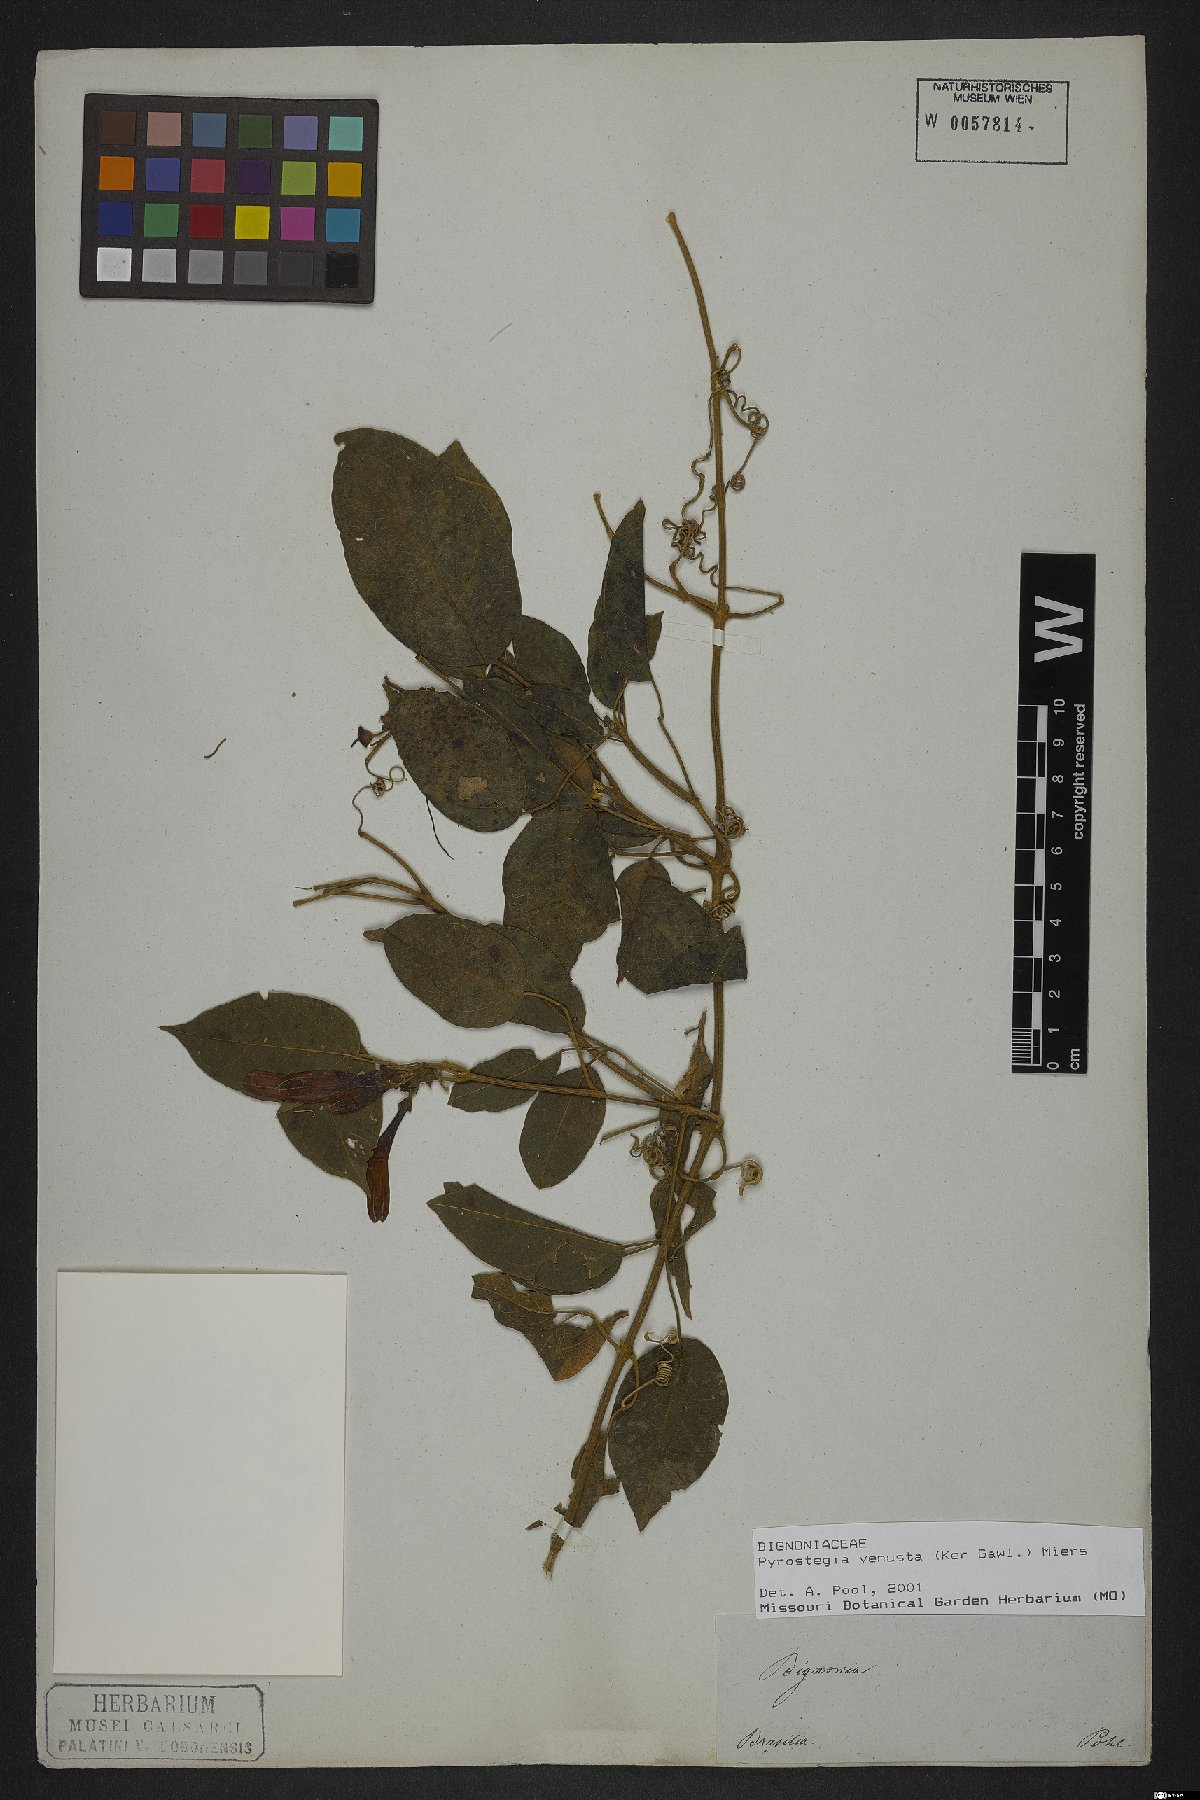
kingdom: Plantae
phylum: Tracheophyta
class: Magnoliopsida
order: Lamiales
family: Bignoniaceae
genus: Pyrostegia
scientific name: Pyrostegia venusta
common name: Flamevine
